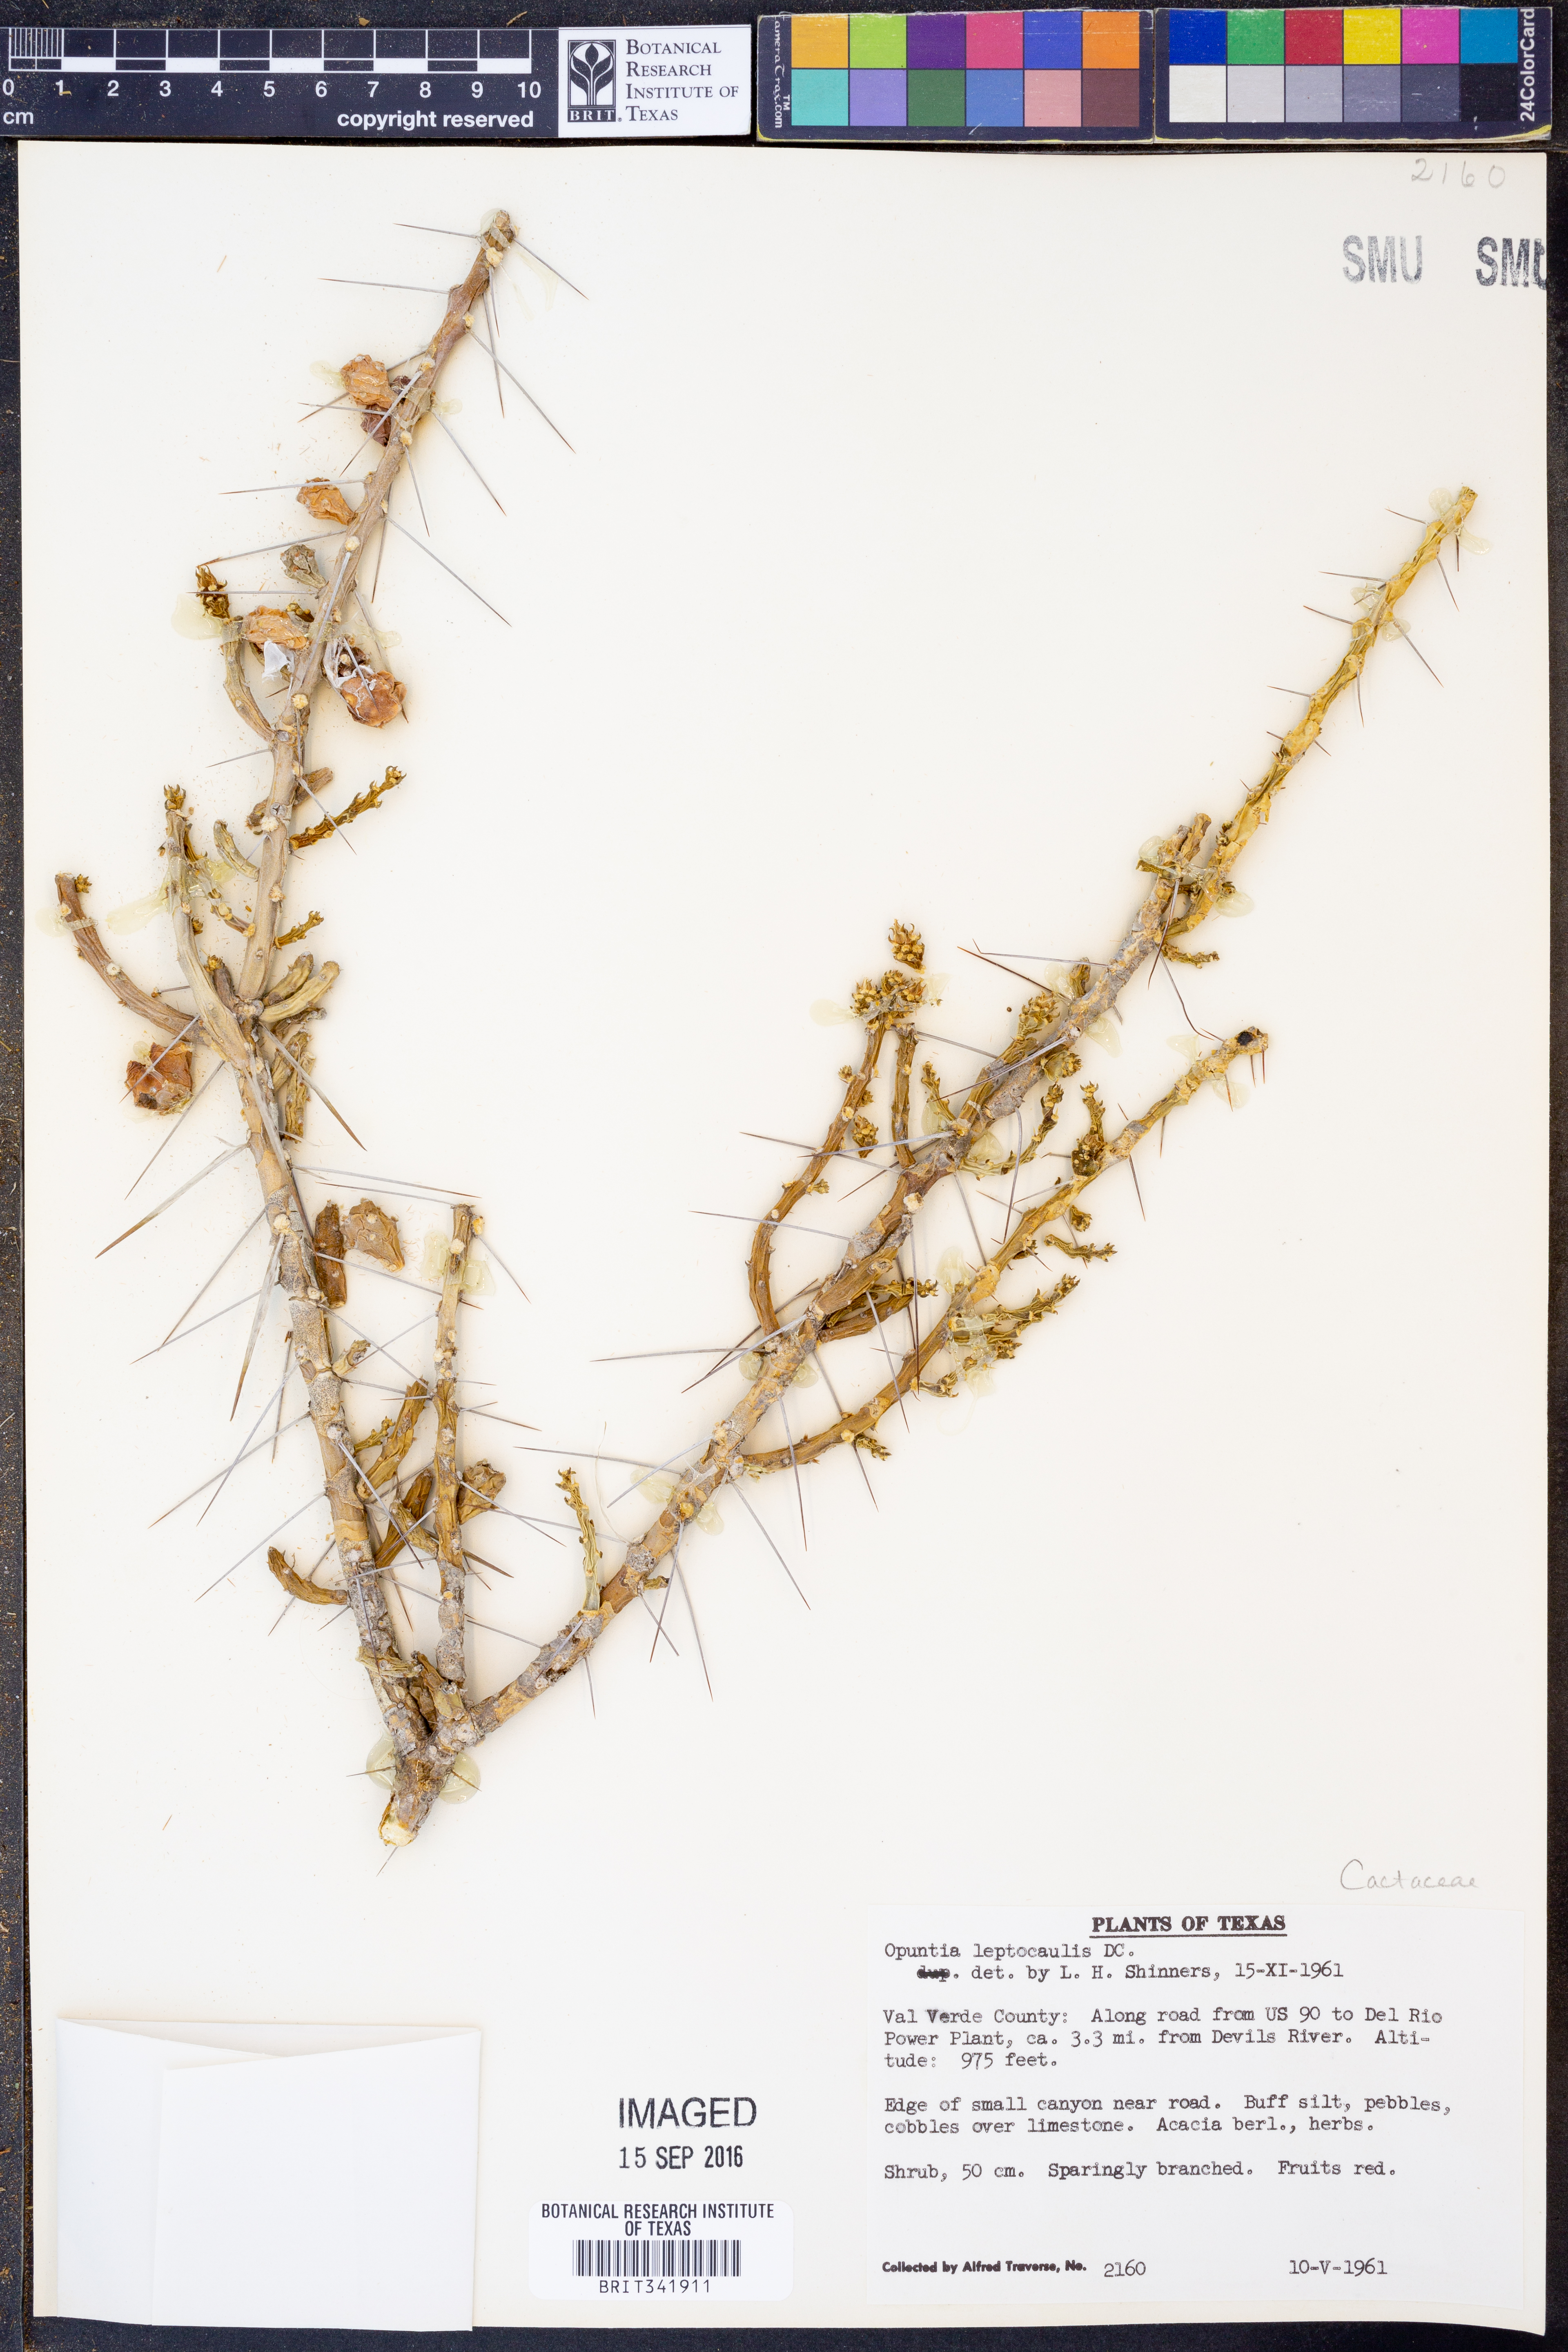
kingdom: Plantae
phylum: Tracheophyta
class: Magnoliopsida
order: Caryophyllales
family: Cactaceae
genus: Cylindropuntia
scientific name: Cylindropuntia leptocaulis
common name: Christmas cactus
